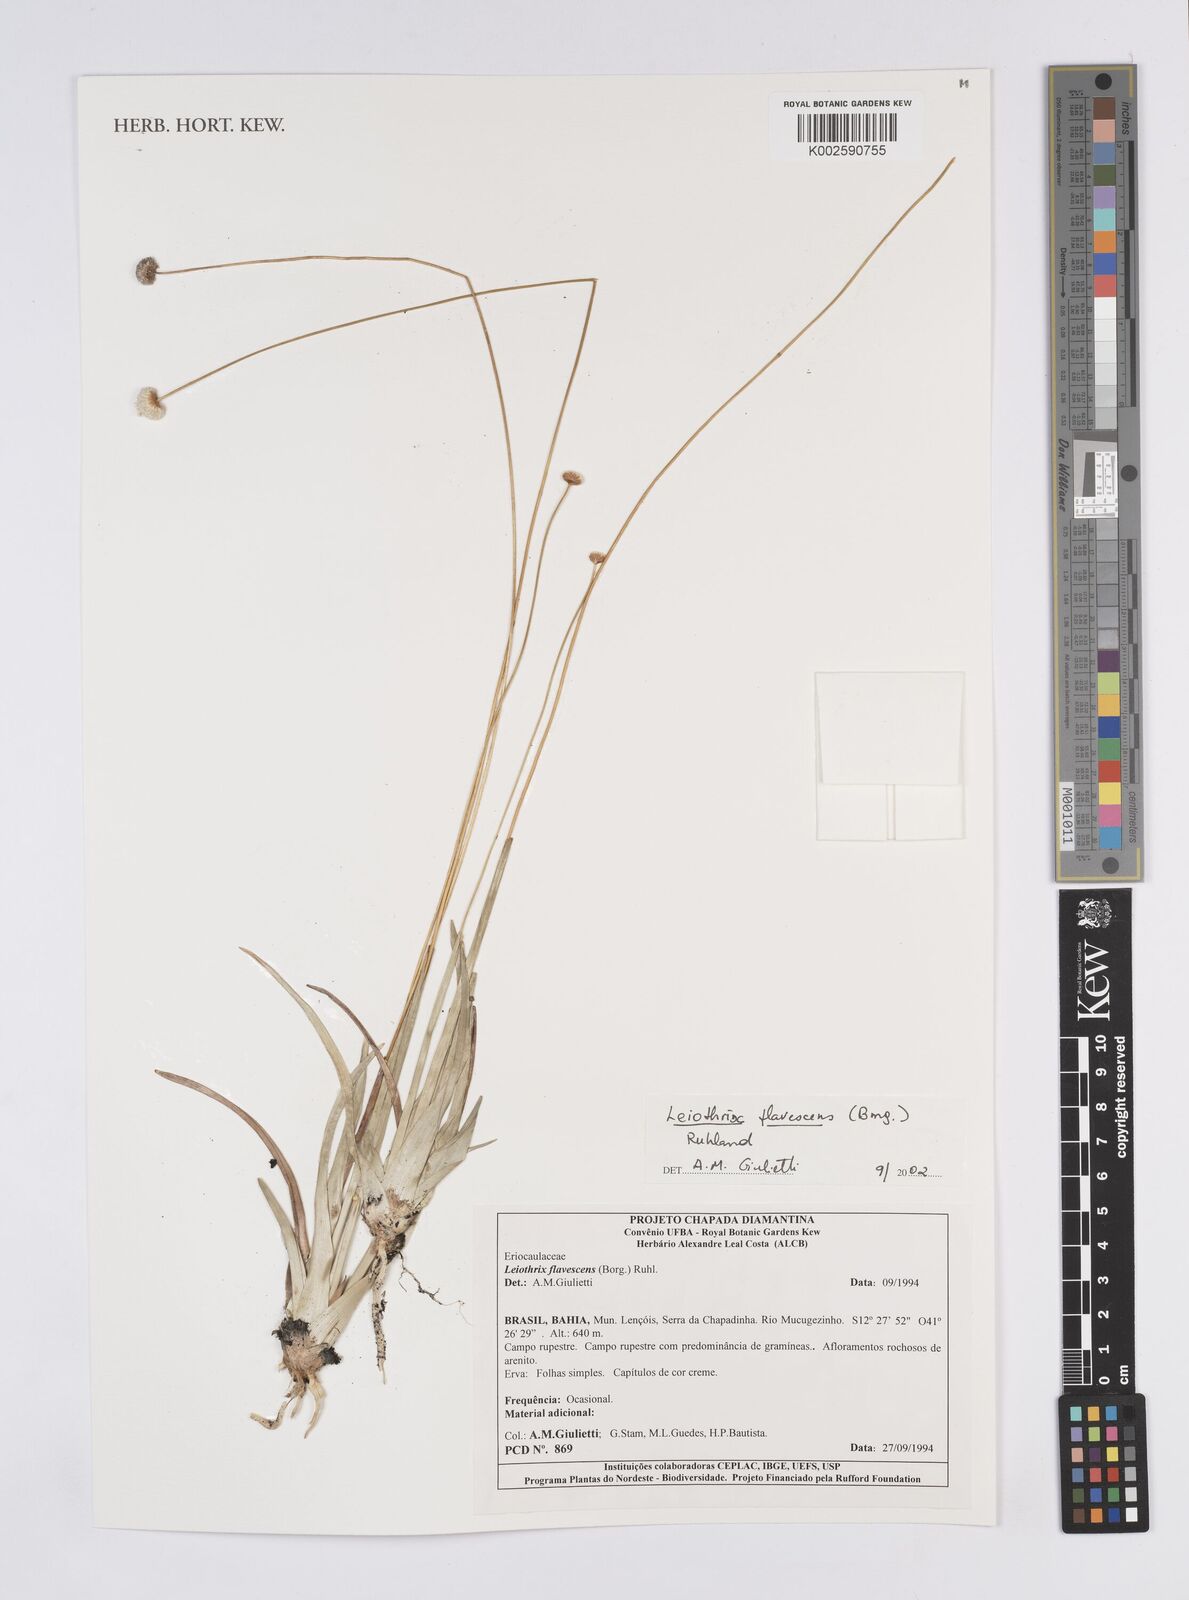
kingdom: Plantae
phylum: Tracheophyta
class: Liliopsida
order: Poales
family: Eriocaulaceae
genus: Leiothrix
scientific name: Leiothrix flavescens
